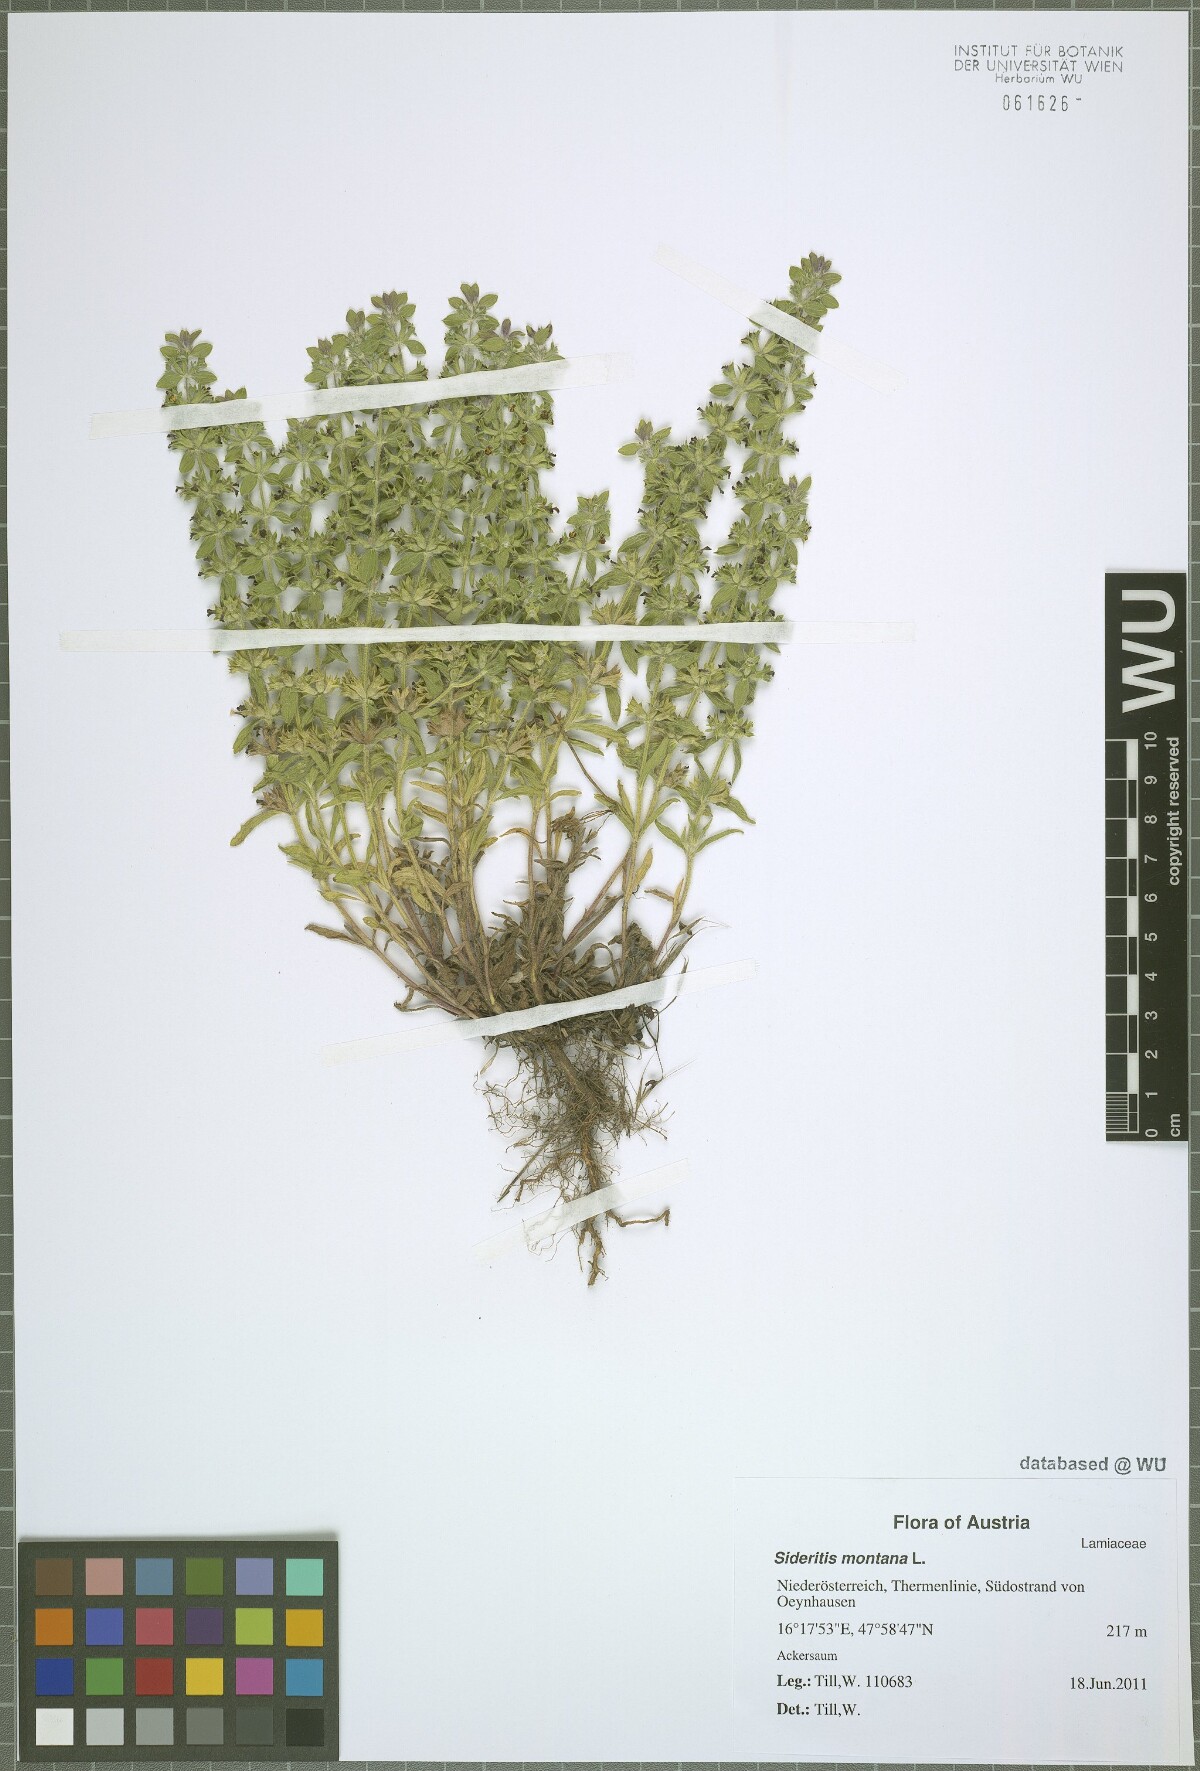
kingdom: Plantae
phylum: Tracheophyta
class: Magnoliopsida
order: Lamiales
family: Lamiaceae
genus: Sideritis
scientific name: Sideritis montana
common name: Mountain ironwort
